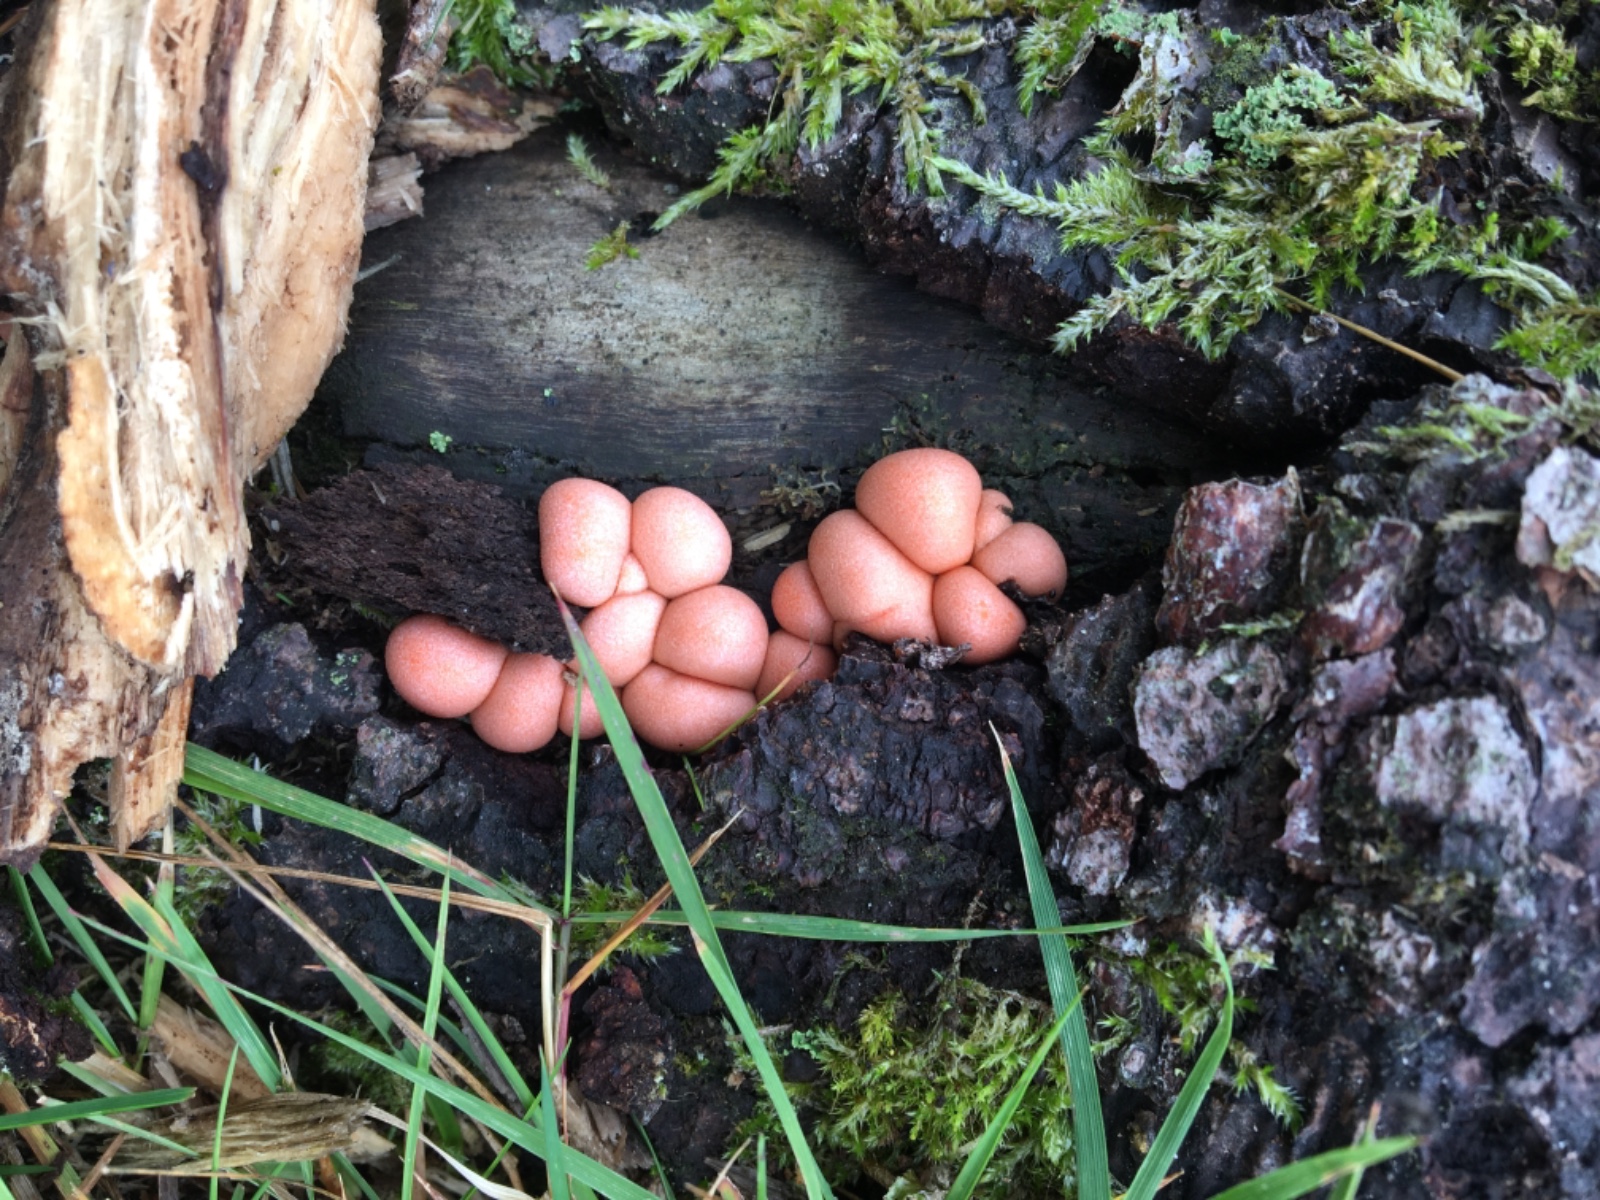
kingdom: Protozoa
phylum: Mycetozoa
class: Myxomycetes
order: Cribrariales
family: Tubiferaceae
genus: Lycogala
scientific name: Lycogala epidendrum
